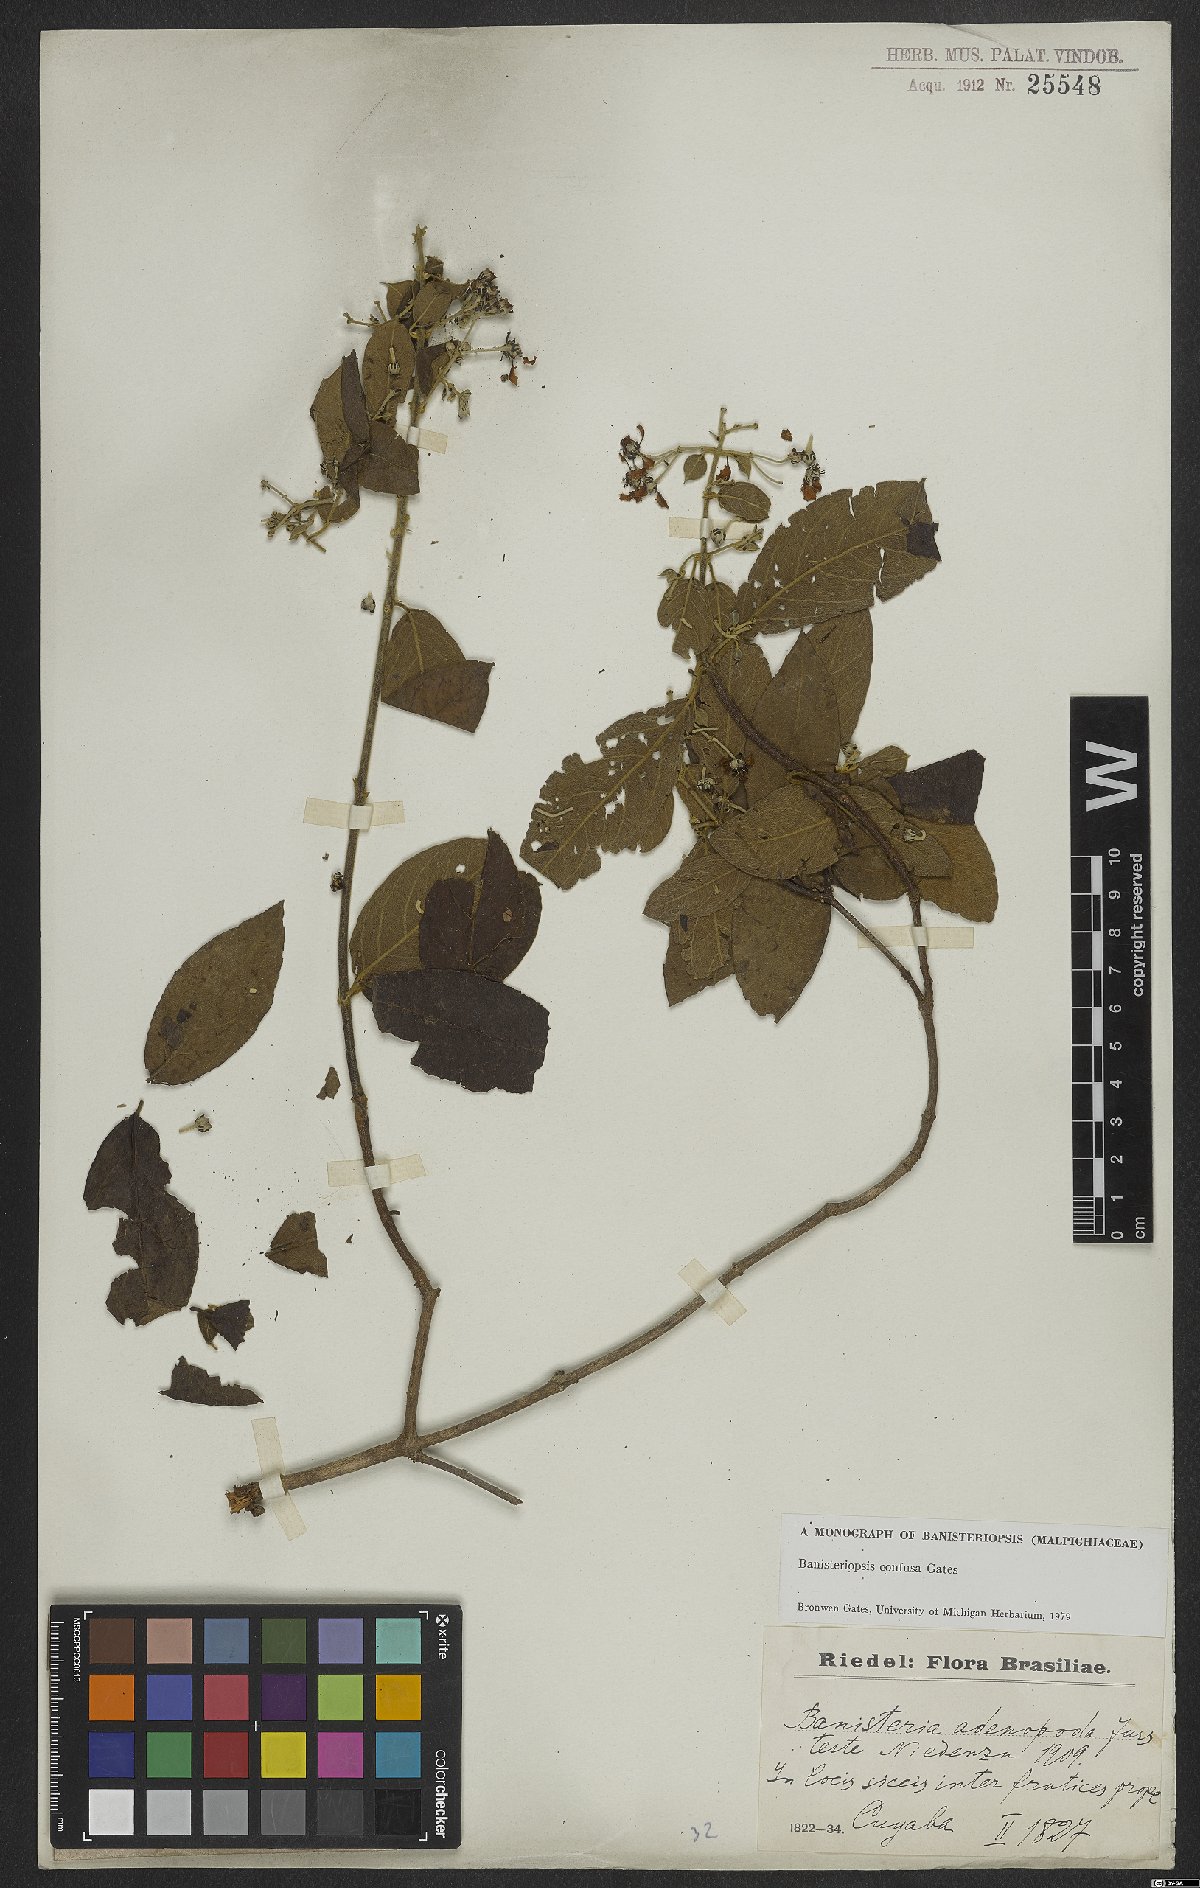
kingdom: Plantae
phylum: Tracheophyta
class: Magnoliopsida
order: Malpighiales
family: Malpighiaceae
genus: Banisteriopsis
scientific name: Banisteriopsis confusa
